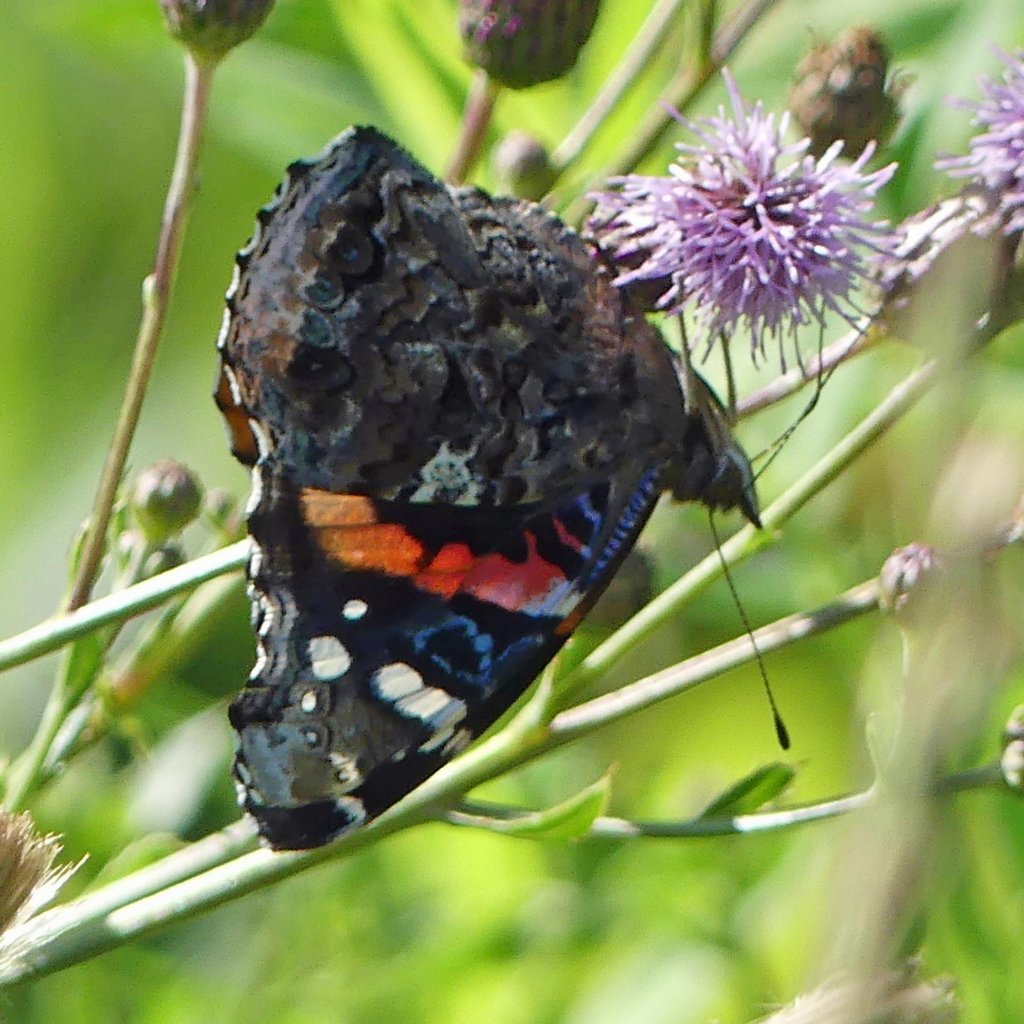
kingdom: Animalia
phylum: Arthropoda
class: Insecta
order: Lepidoptera
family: Nymphalidae
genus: Vanessa
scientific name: Vanessa atalanta
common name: Red Admiral
